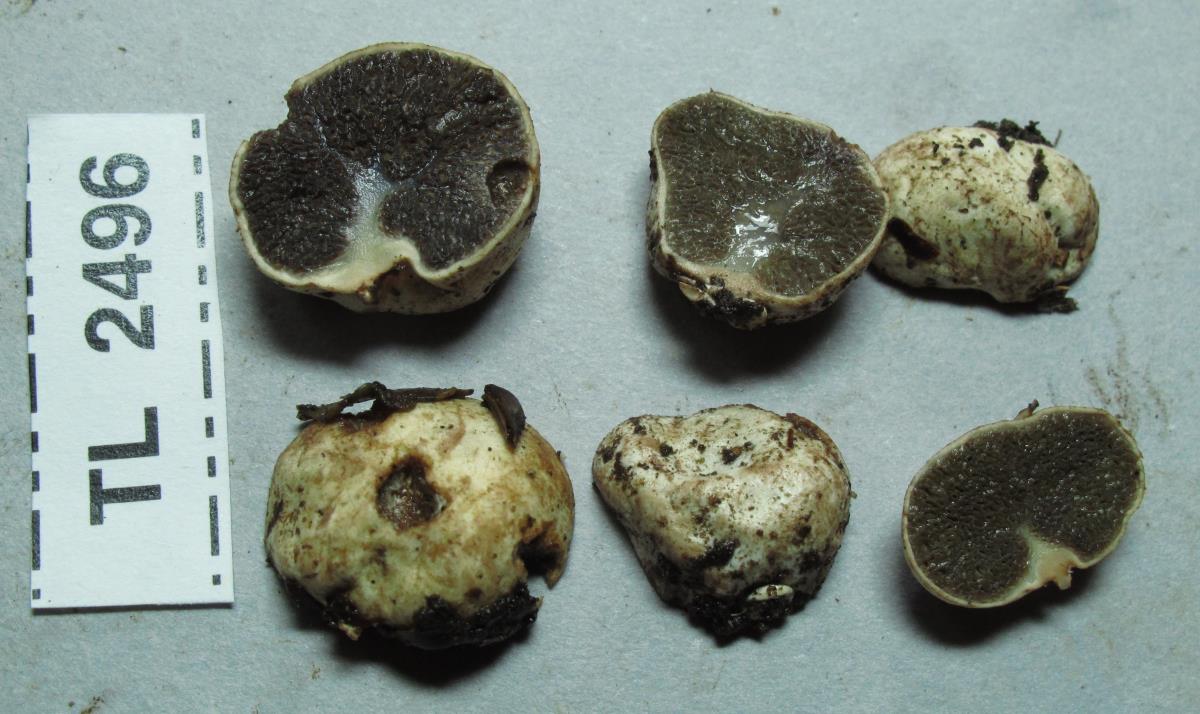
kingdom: Fungi
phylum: Basidiomycota
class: Agaricomycetes
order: Boletales
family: Boletaceae
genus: Leccinum
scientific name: Leccinum pachyderme
